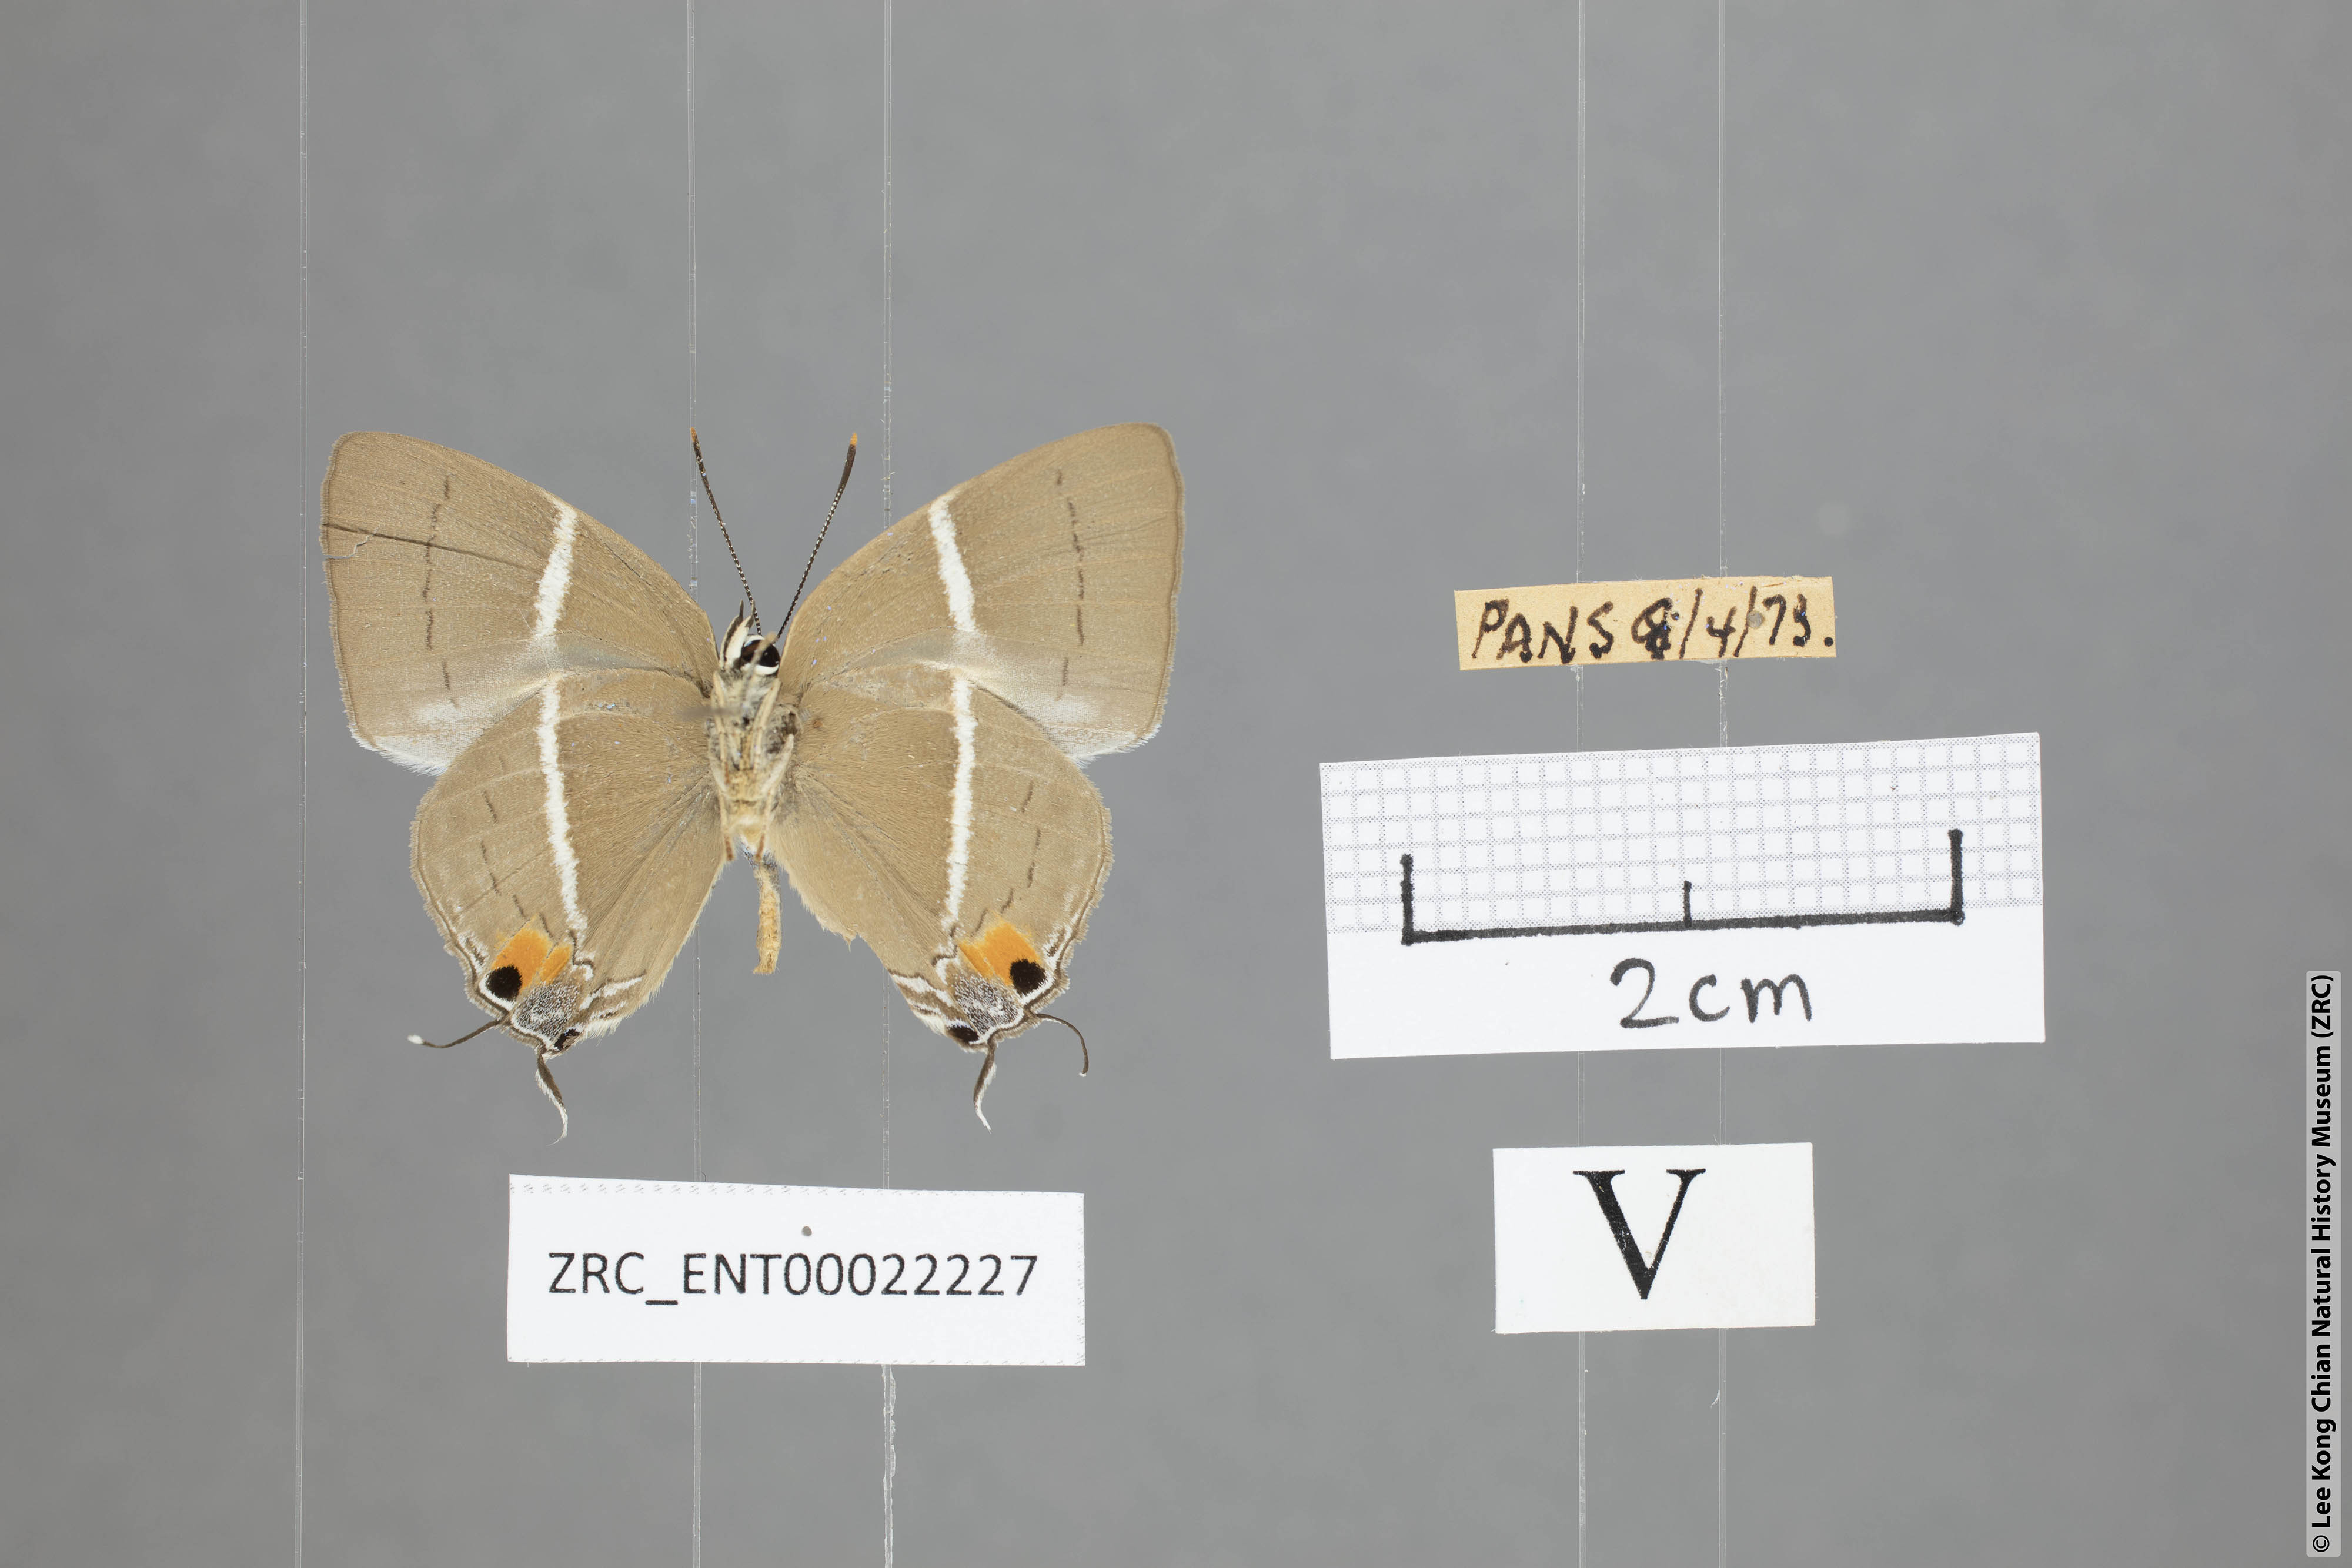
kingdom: Animalia
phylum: Arthropoda
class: Insecta
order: Lepidoptera
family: Lycaenidae
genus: Tajuria
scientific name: Tajuria
